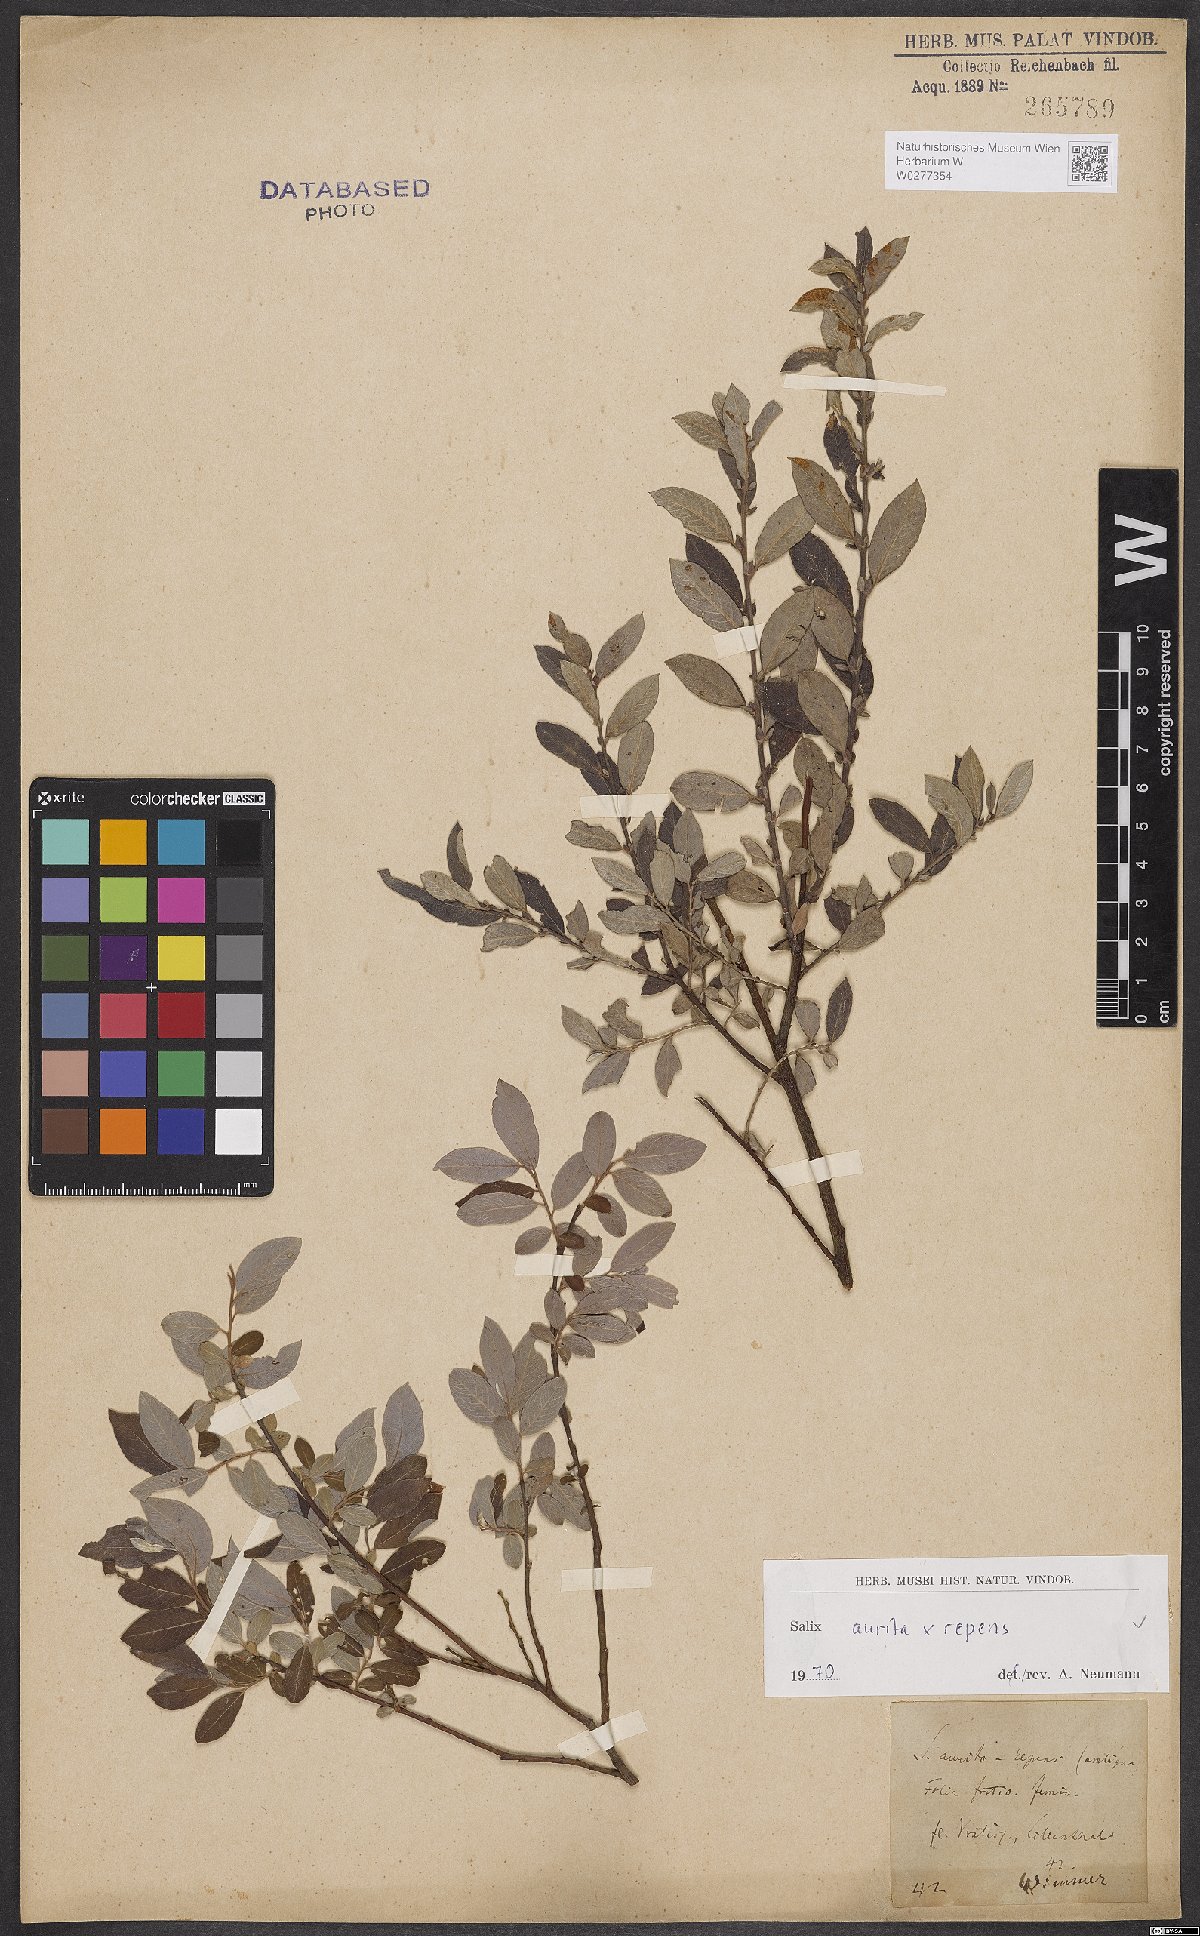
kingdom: Plantae
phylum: Tracheophyta
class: Magnoliopsida
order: Malpighiales
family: Salicaceae
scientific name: Salicaceae
